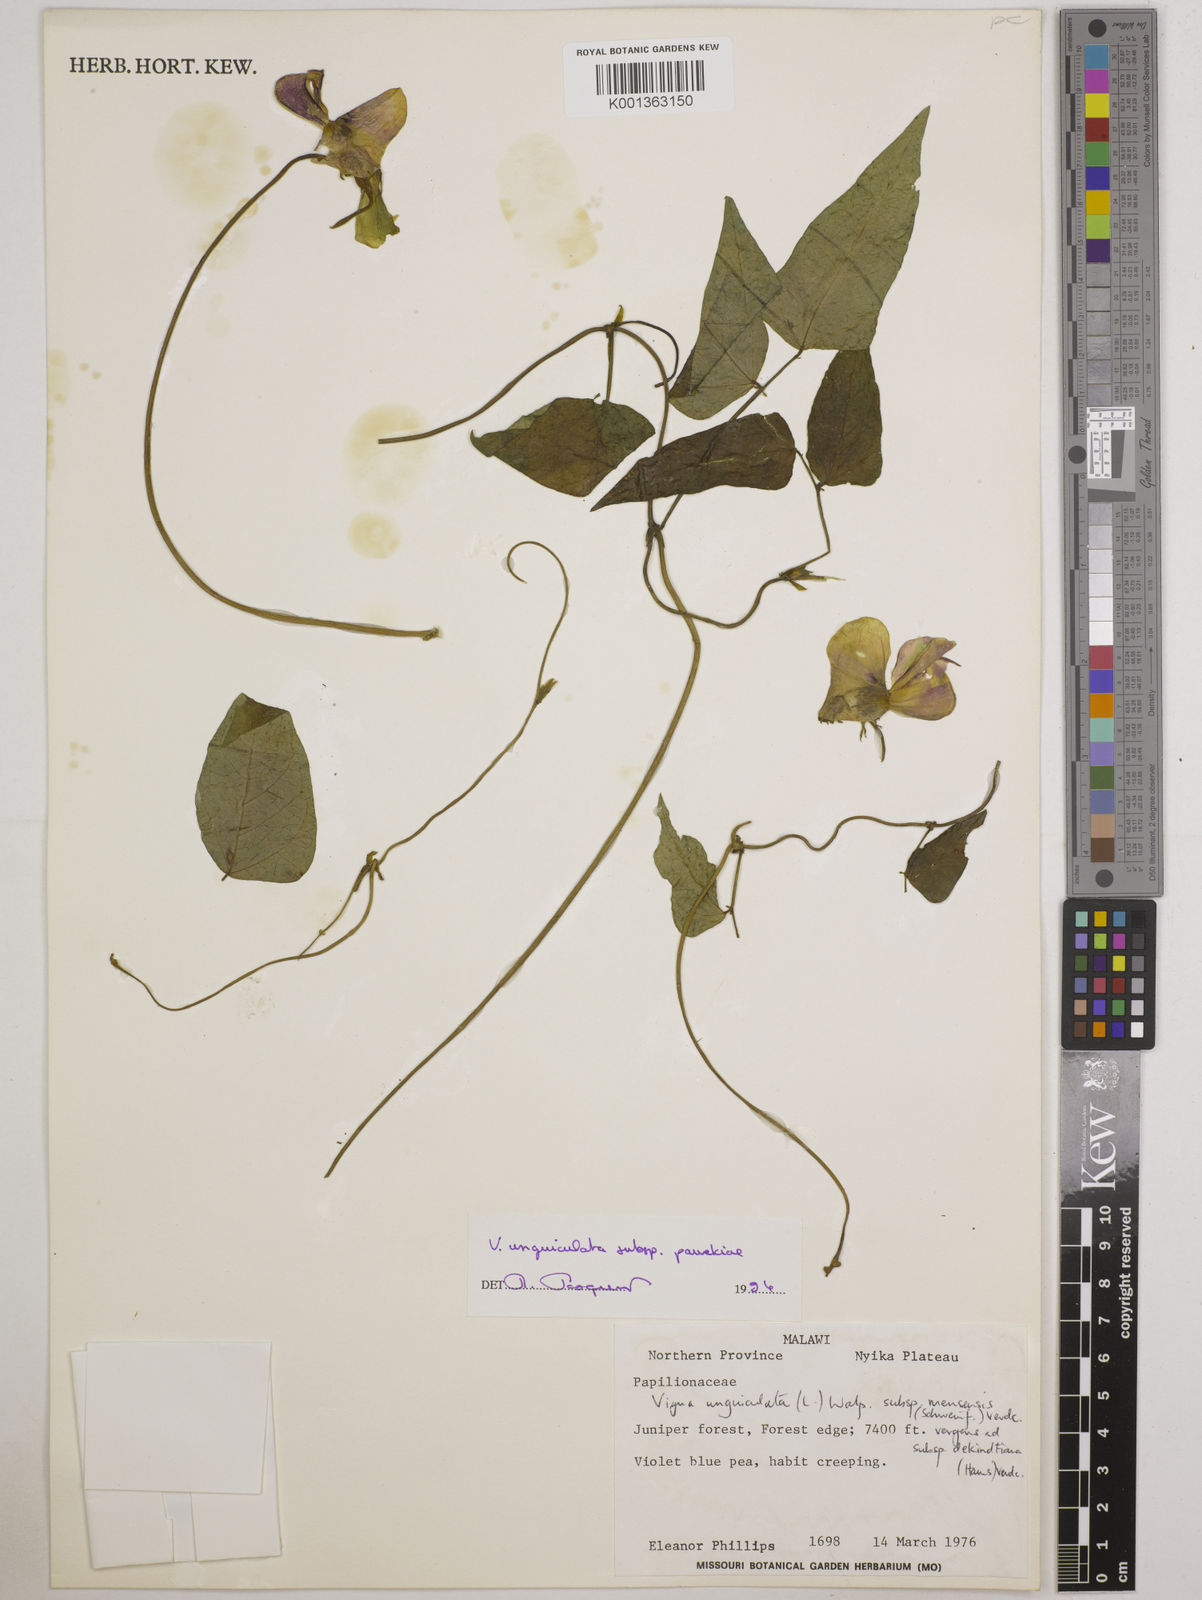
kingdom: Plantae
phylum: Tracheophyta
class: Magnoliopsida
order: Fabales
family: Fabaceae
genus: Vigna
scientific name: Vigna unguiculata
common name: Cowpea
